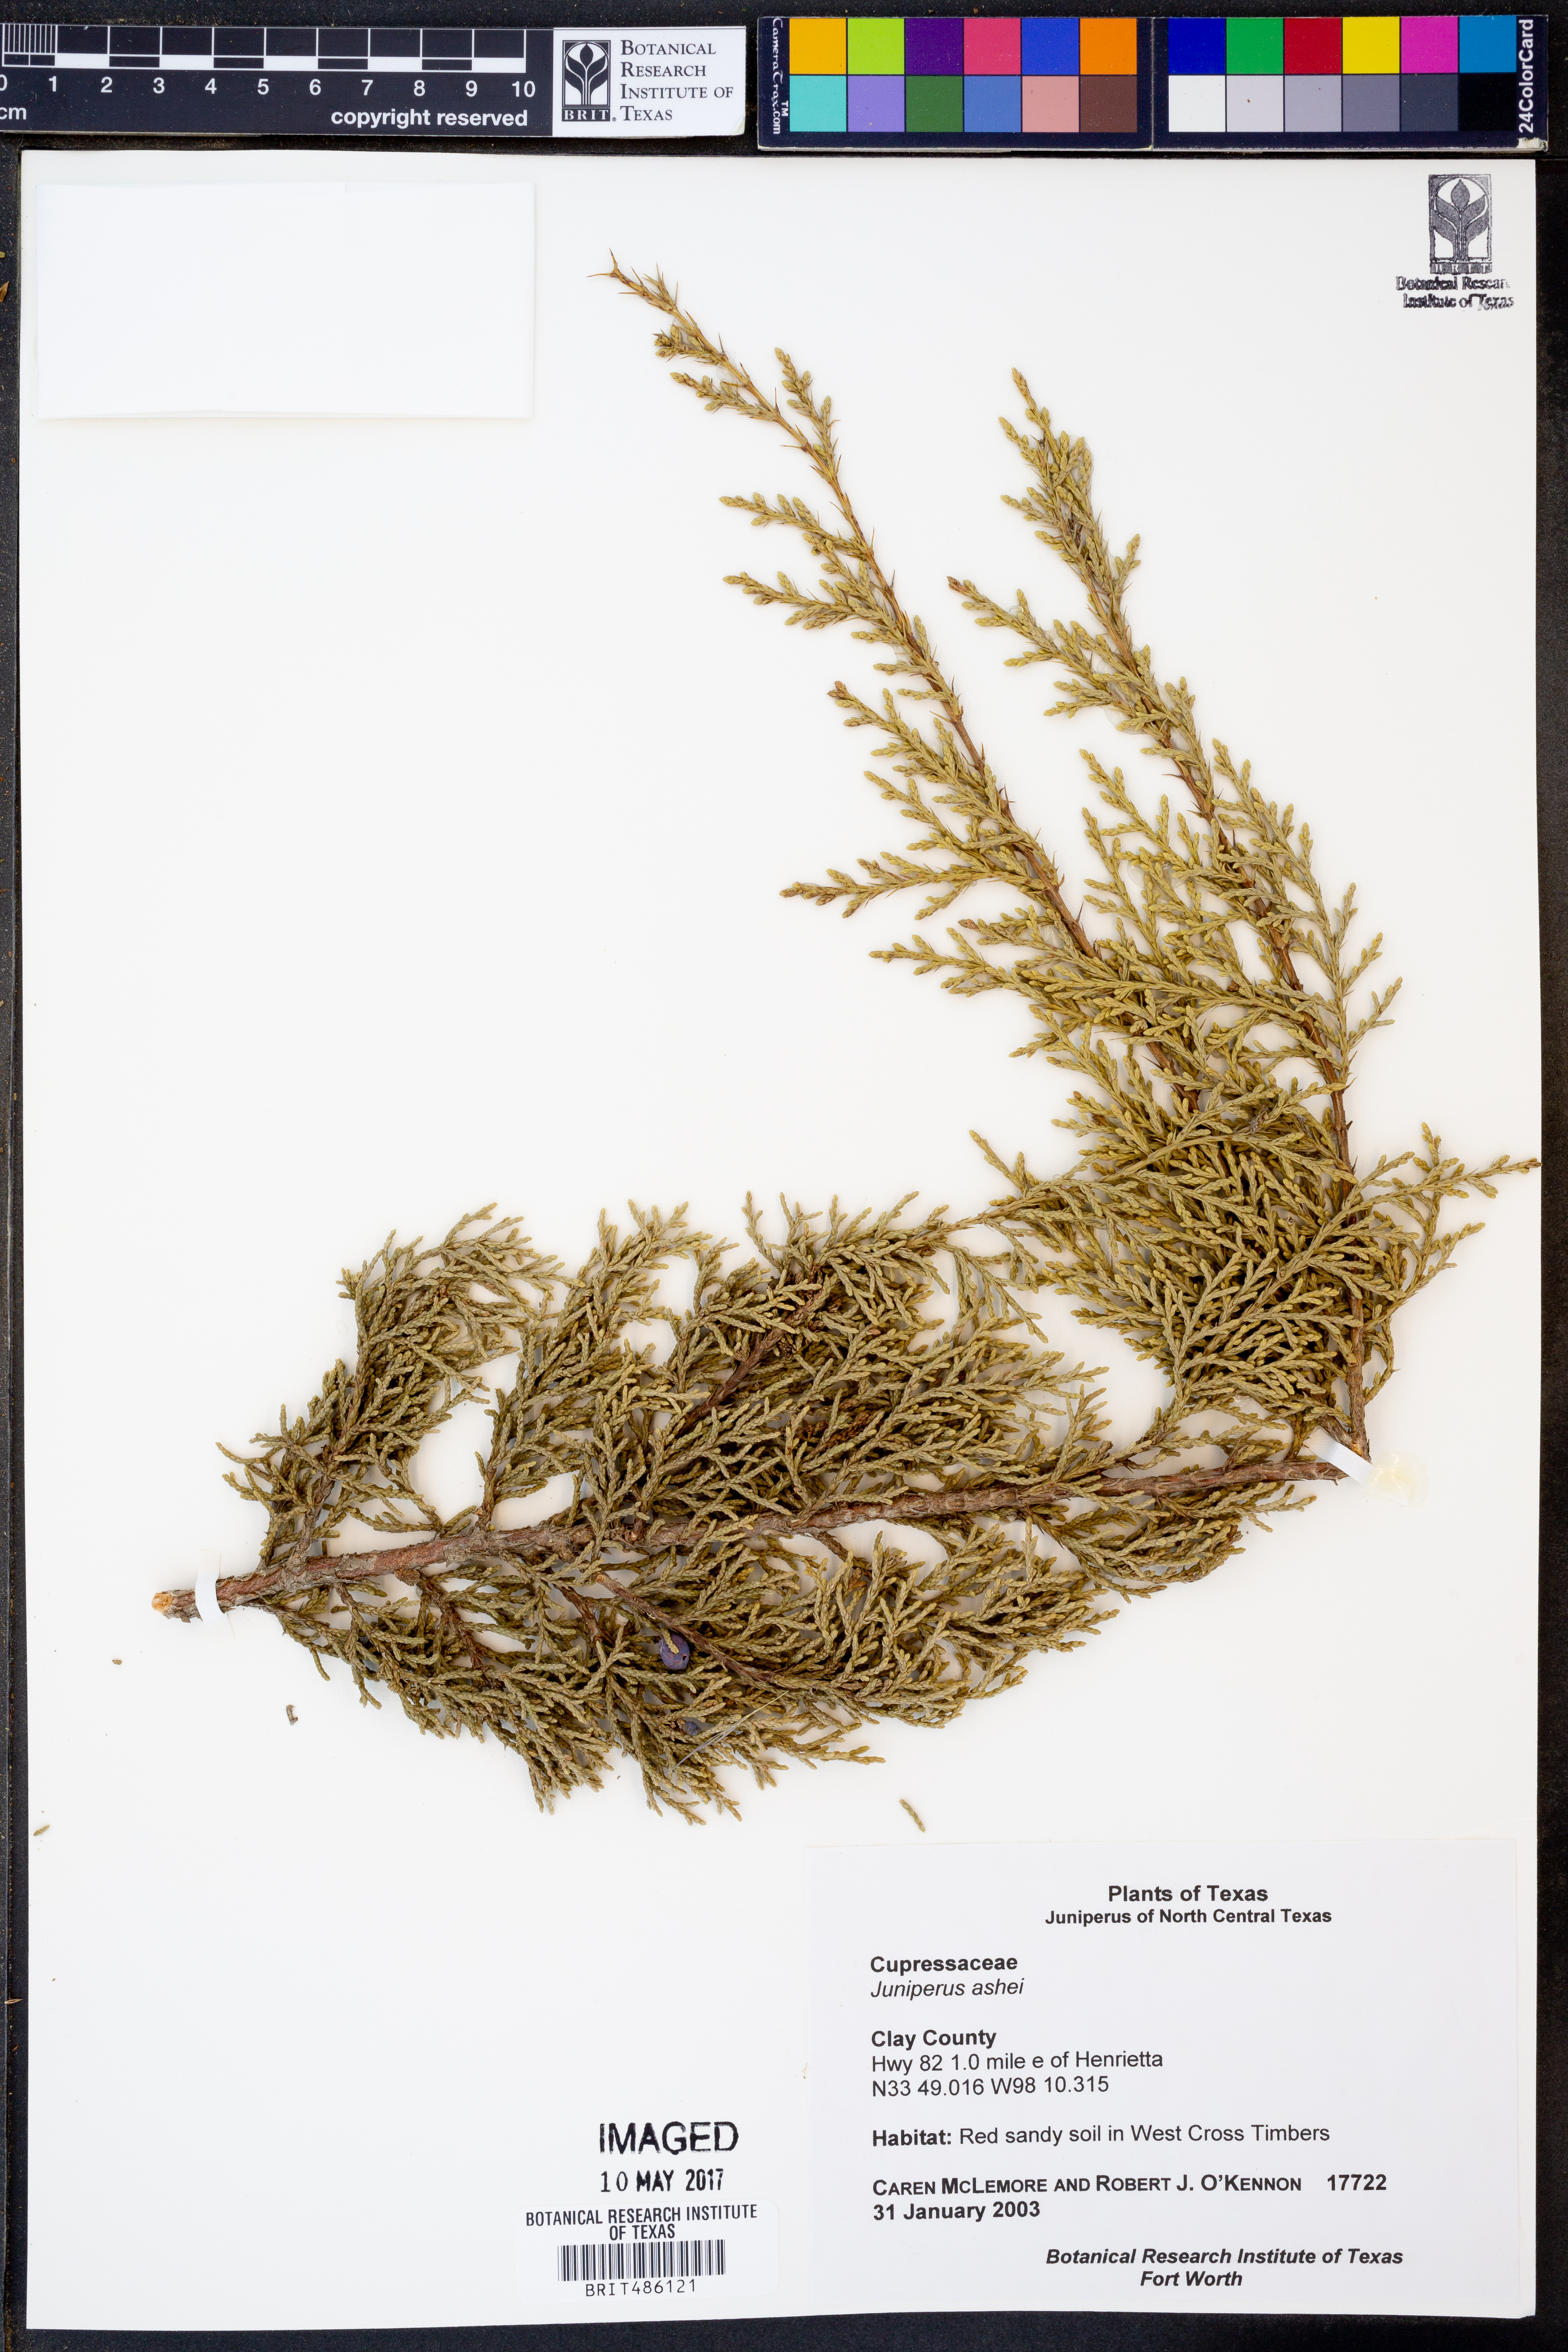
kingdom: Plantae
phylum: Tracheophyta
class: Pinopsida
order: Pinales
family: Cupressaceae
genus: Juniperus
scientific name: Juniperus ashei
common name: Mexican juniper
